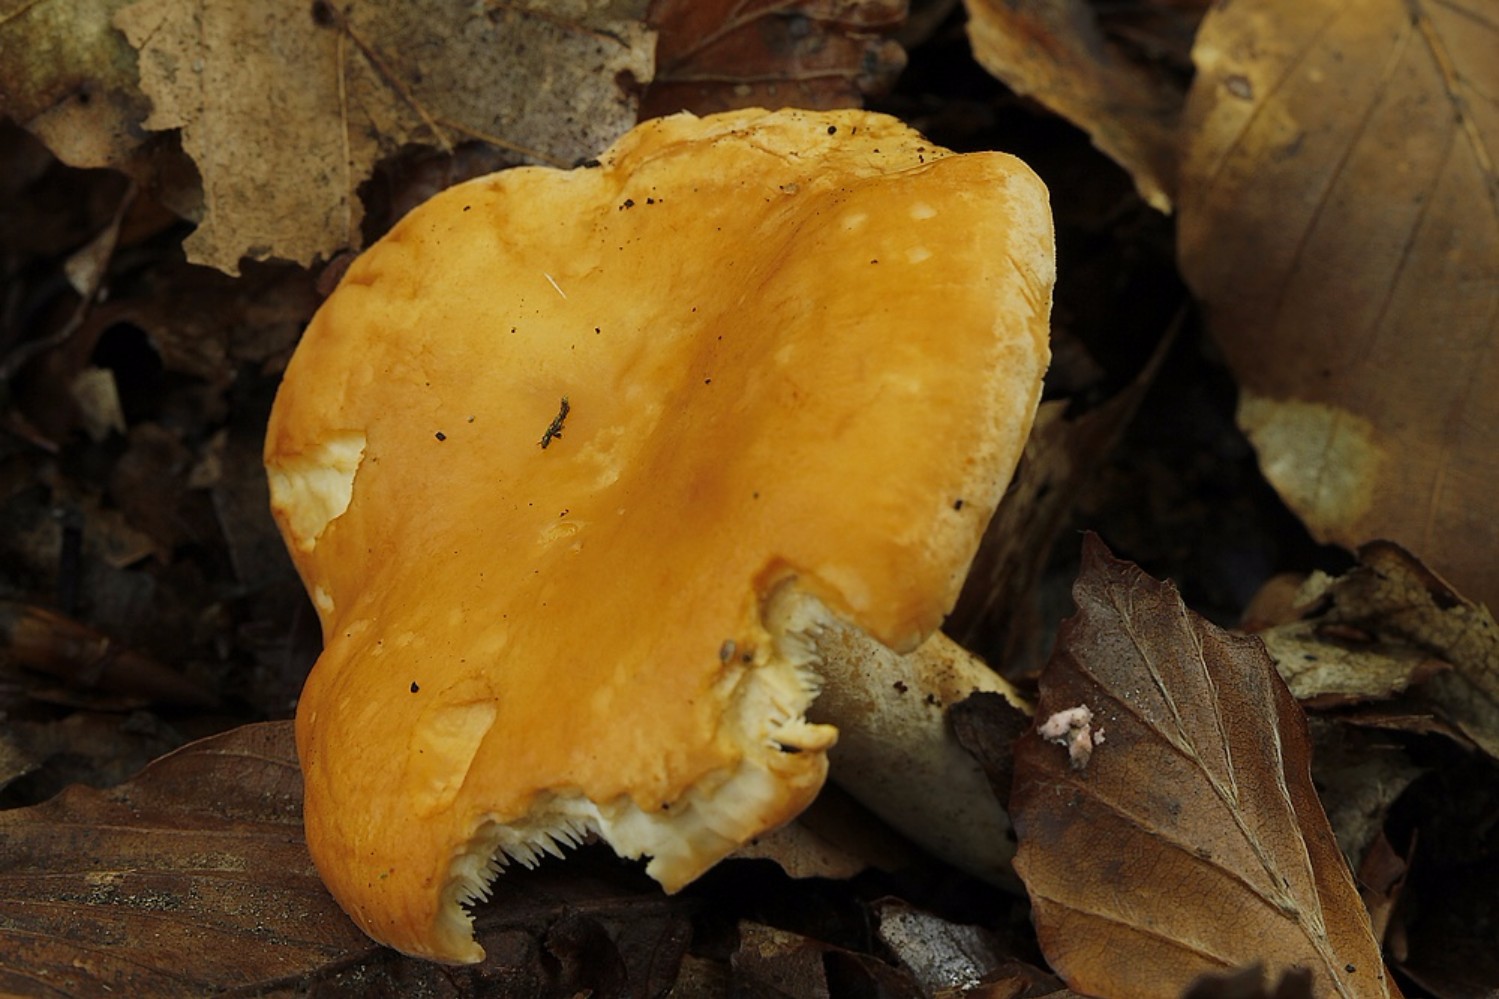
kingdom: Fungi
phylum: Basidiomycota
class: Agaricomycetes
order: Cantharellales
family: Hydnaceae
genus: Hydnum
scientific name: Hydnum
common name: pigsvamp
